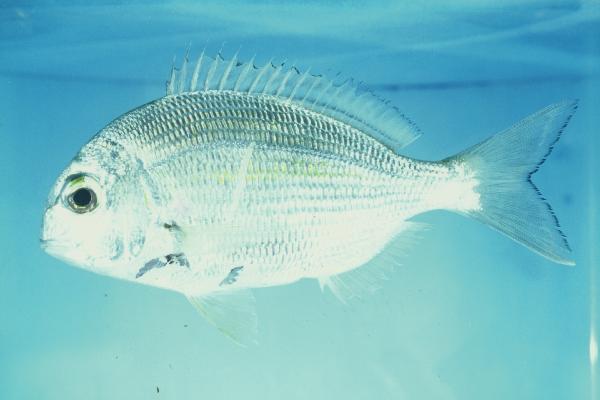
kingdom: Animalia
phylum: Chordata
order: Perciformes
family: Sparidae
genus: Rhabdosargus
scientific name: Rhabdosargus holubi
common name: Cape stumpnose
